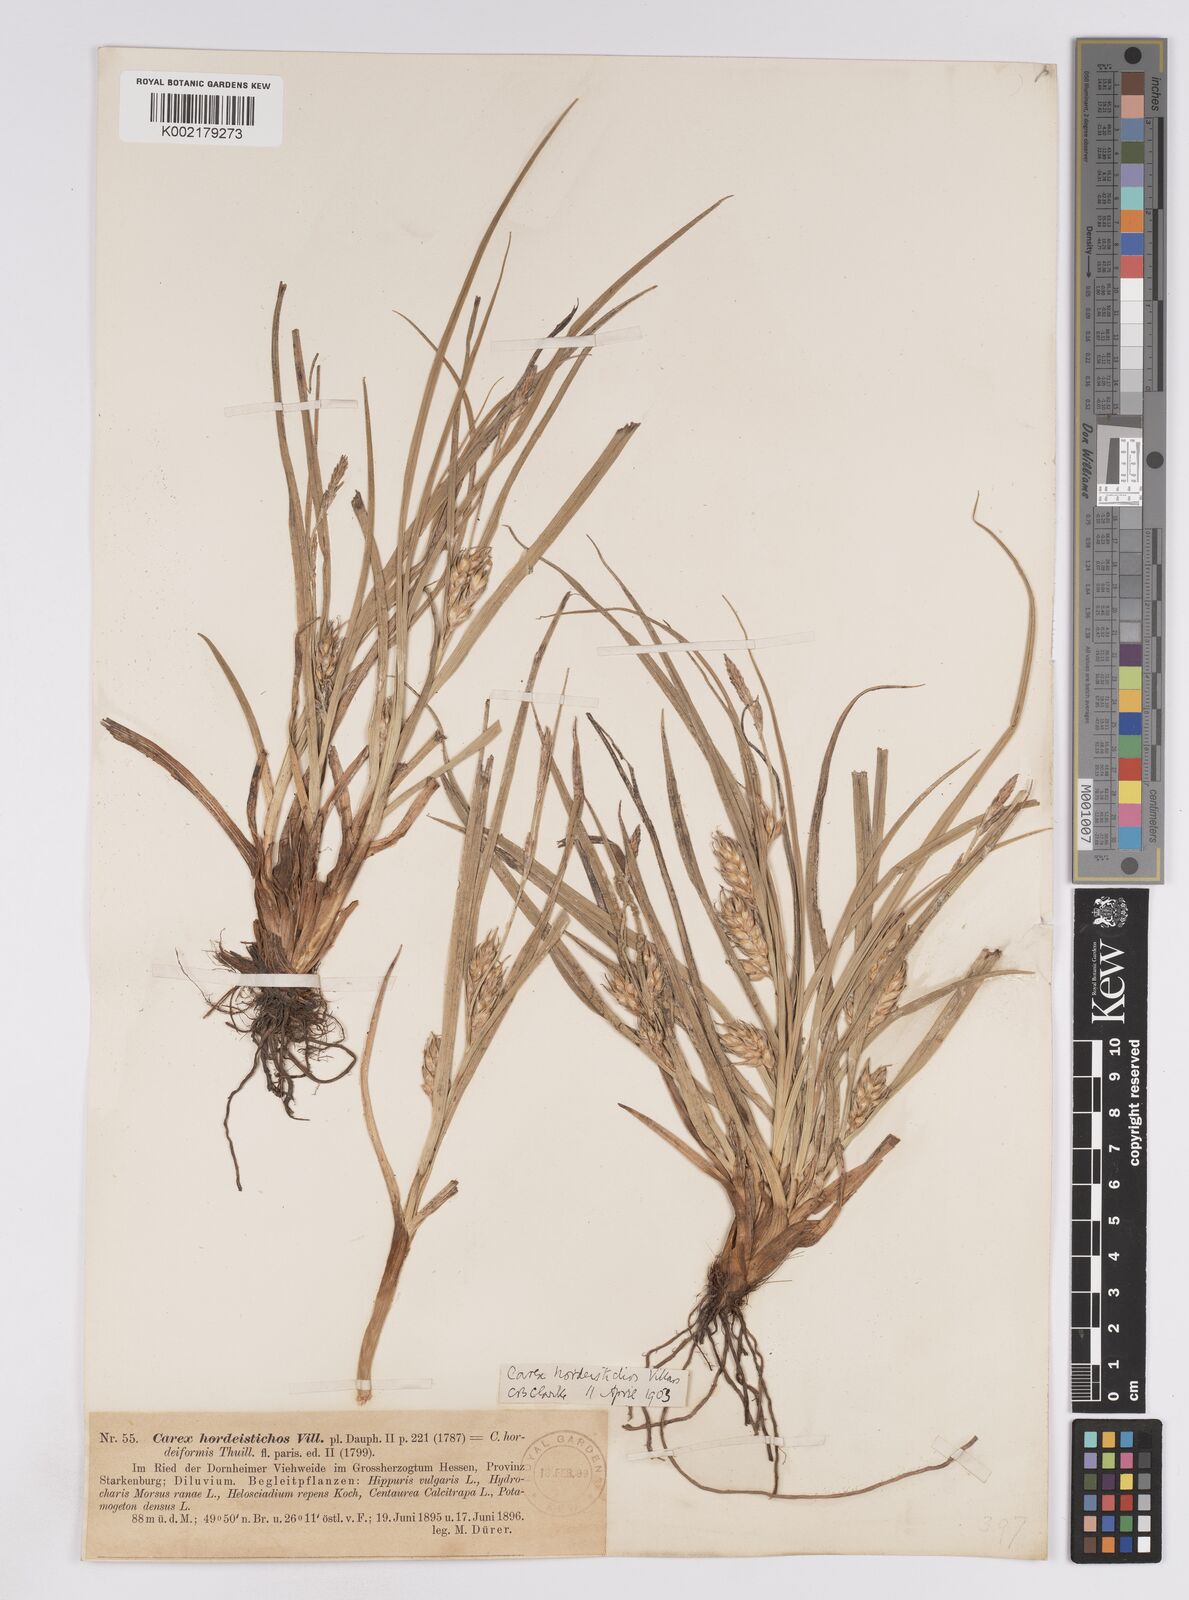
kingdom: Plantae
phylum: Tracheophyta
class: Liliopsida
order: Poales
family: Cyperaceae
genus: Carex
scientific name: Carex hordeistichos
